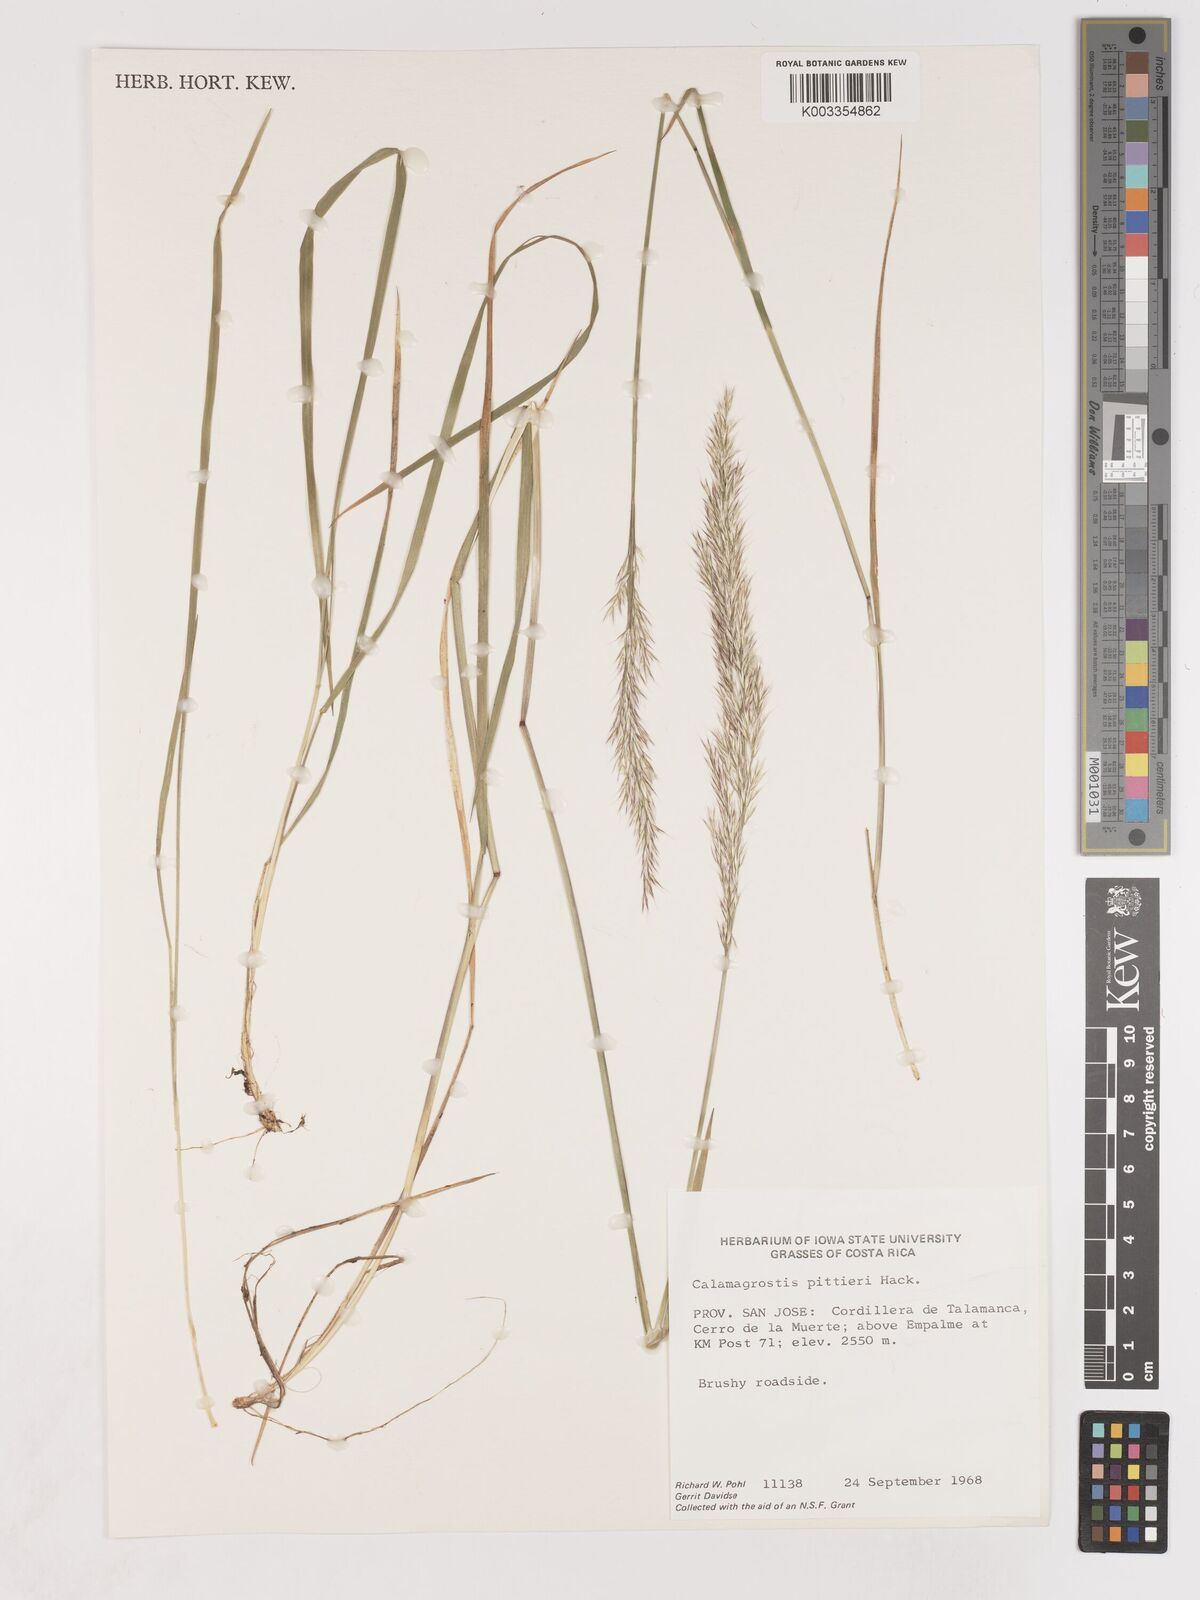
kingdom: Plantae
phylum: Tracheophyta
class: Liliopsida
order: Poales
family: Poaceae
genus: Calamagrostis
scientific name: Calamagrostis
